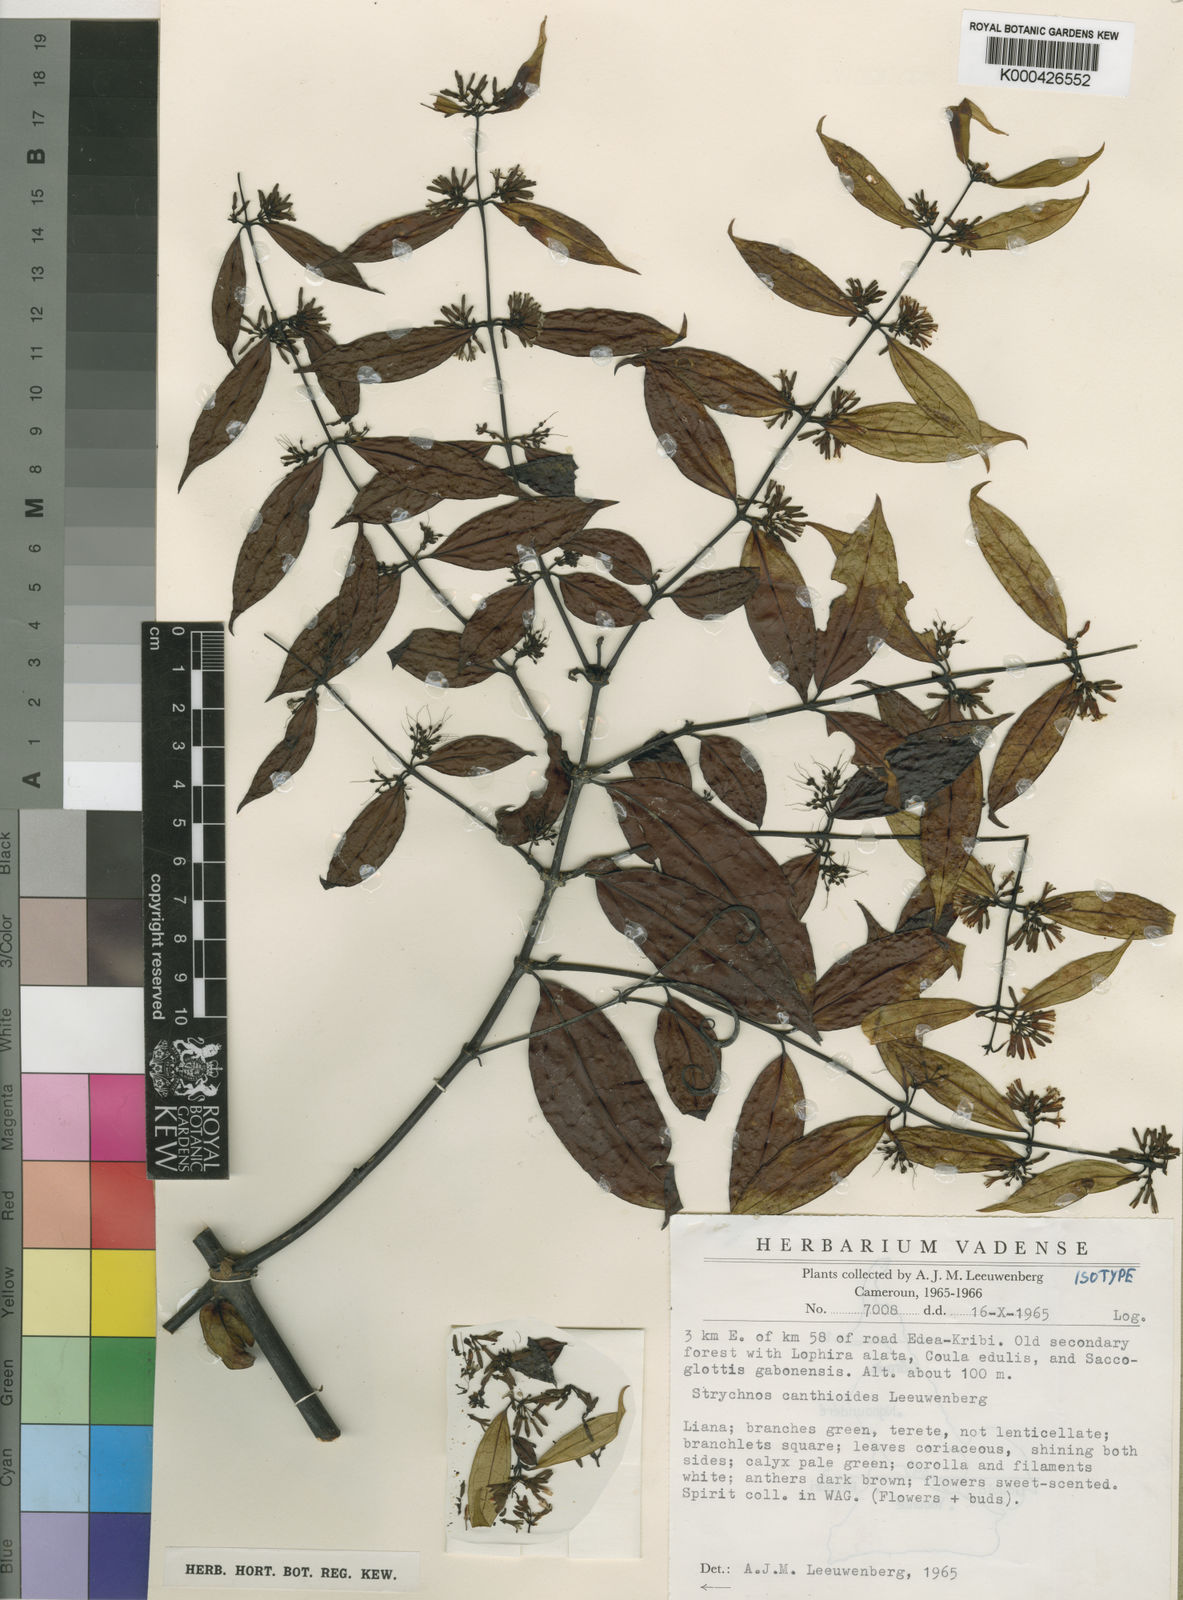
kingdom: Plantae
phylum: Tracheophyta
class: Magnoliopsida
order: Gentianales
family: Loganiaceae
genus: Strychnos
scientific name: Strychnos canthioides
